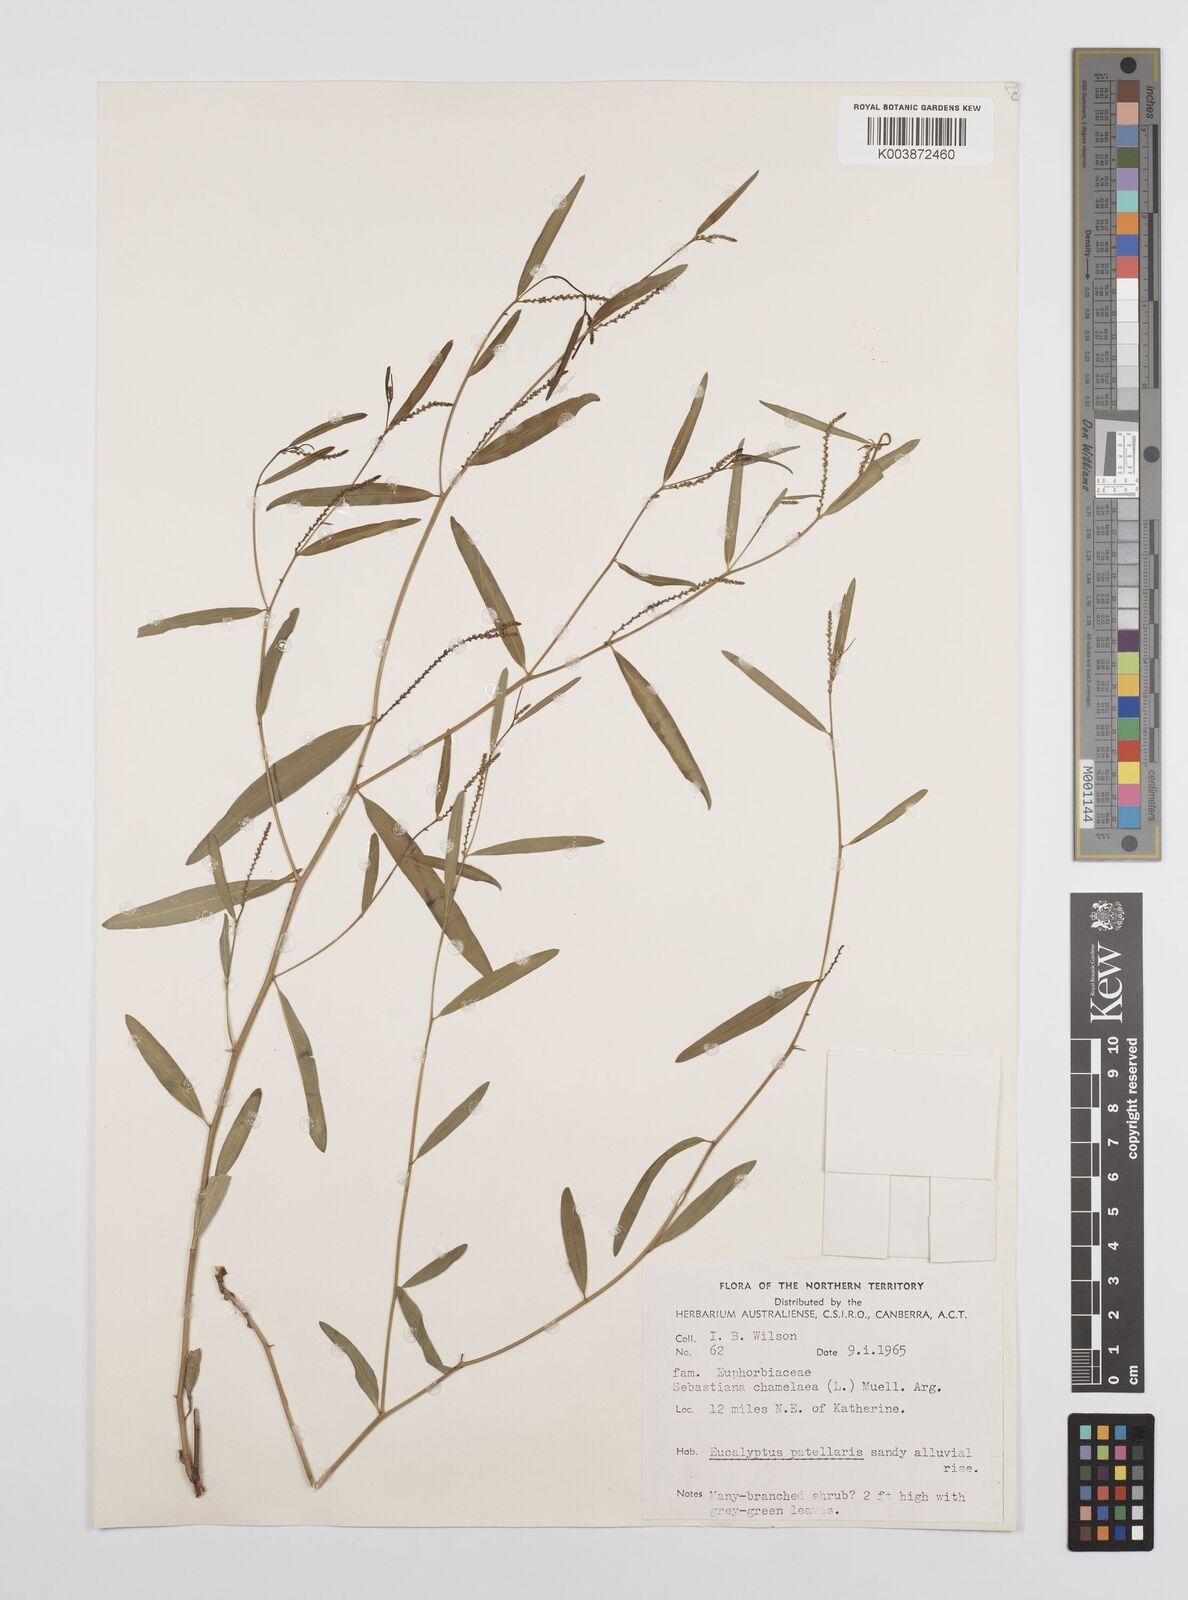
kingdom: Plantae
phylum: Tracheophyta
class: Magnoliopsida
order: Malpighiales
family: Euphorbiaceae
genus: Microstachys
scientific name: Microstachys chamaelea
